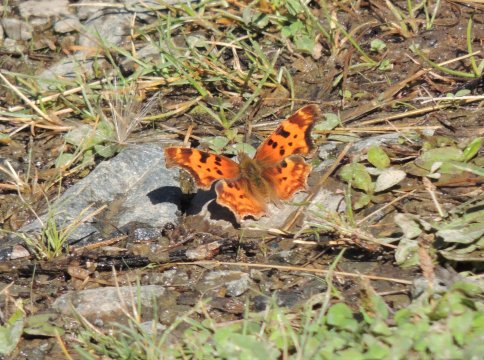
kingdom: Animalia
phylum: Arthropoda
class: Insecta
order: Lepidoptera
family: Nymphalidae
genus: Polygonia
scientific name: Polygonia satyrus
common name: Satyr Comma
